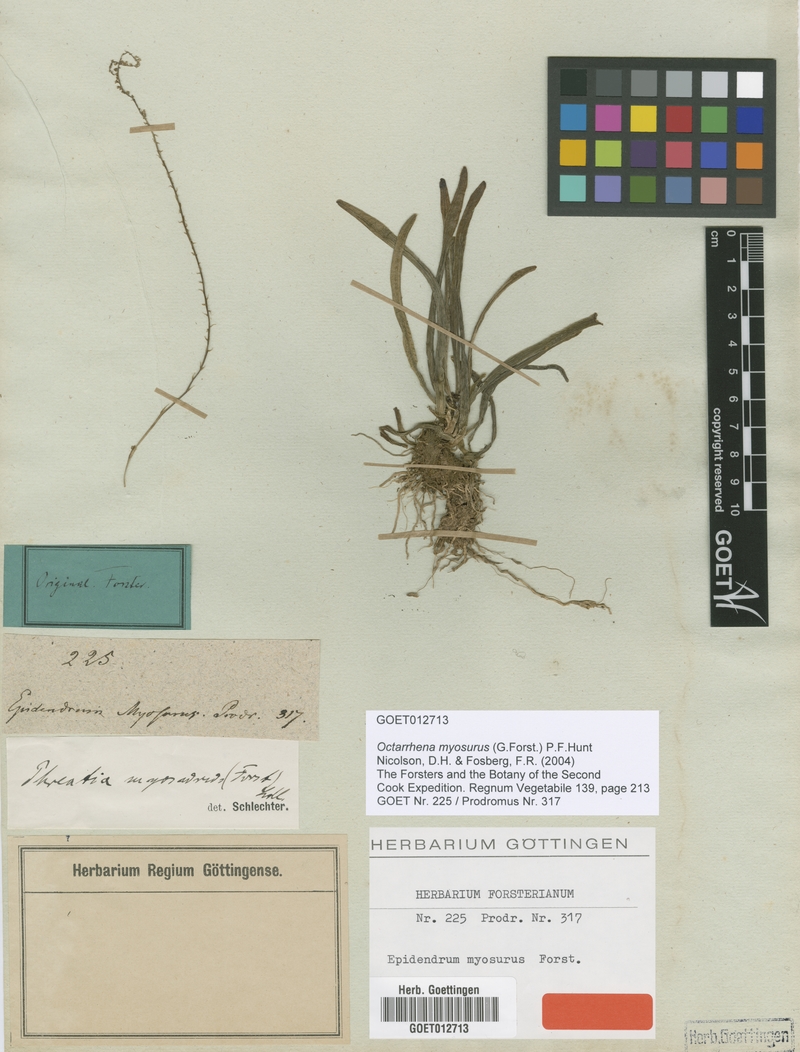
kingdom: Plantae
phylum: Tracheophyta
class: Liliopsida
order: Asparagales
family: Orchidaceae
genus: Phreatia
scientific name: Phreatia inversa
